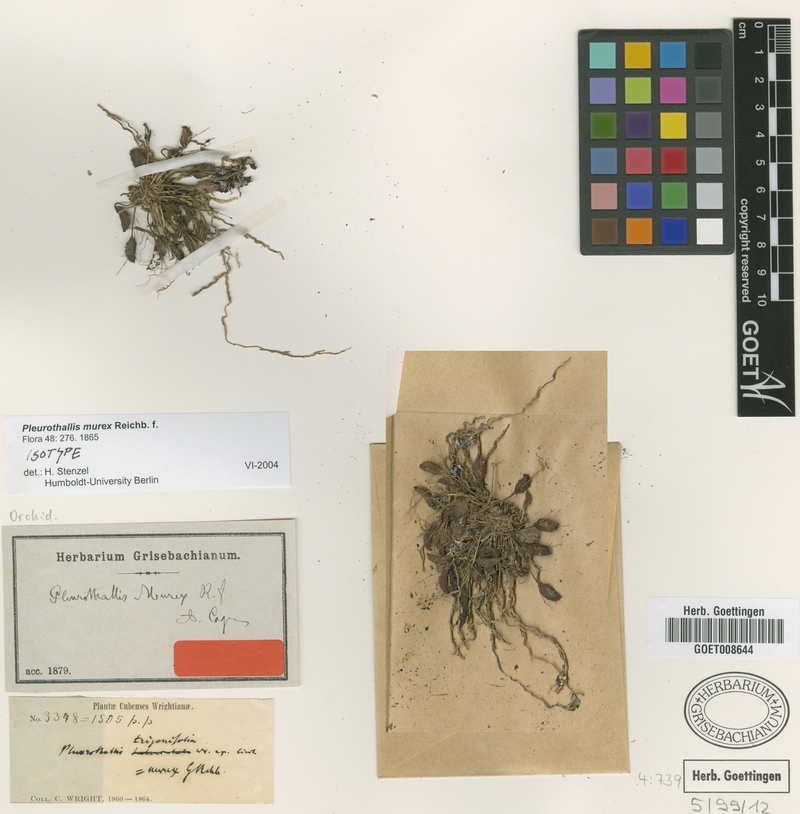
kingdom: Plantae
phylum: Tracheophyta
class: Liliopsida
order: Asparagales
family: Orchidaceae
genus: Acianthera
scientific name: Acianthera murex
